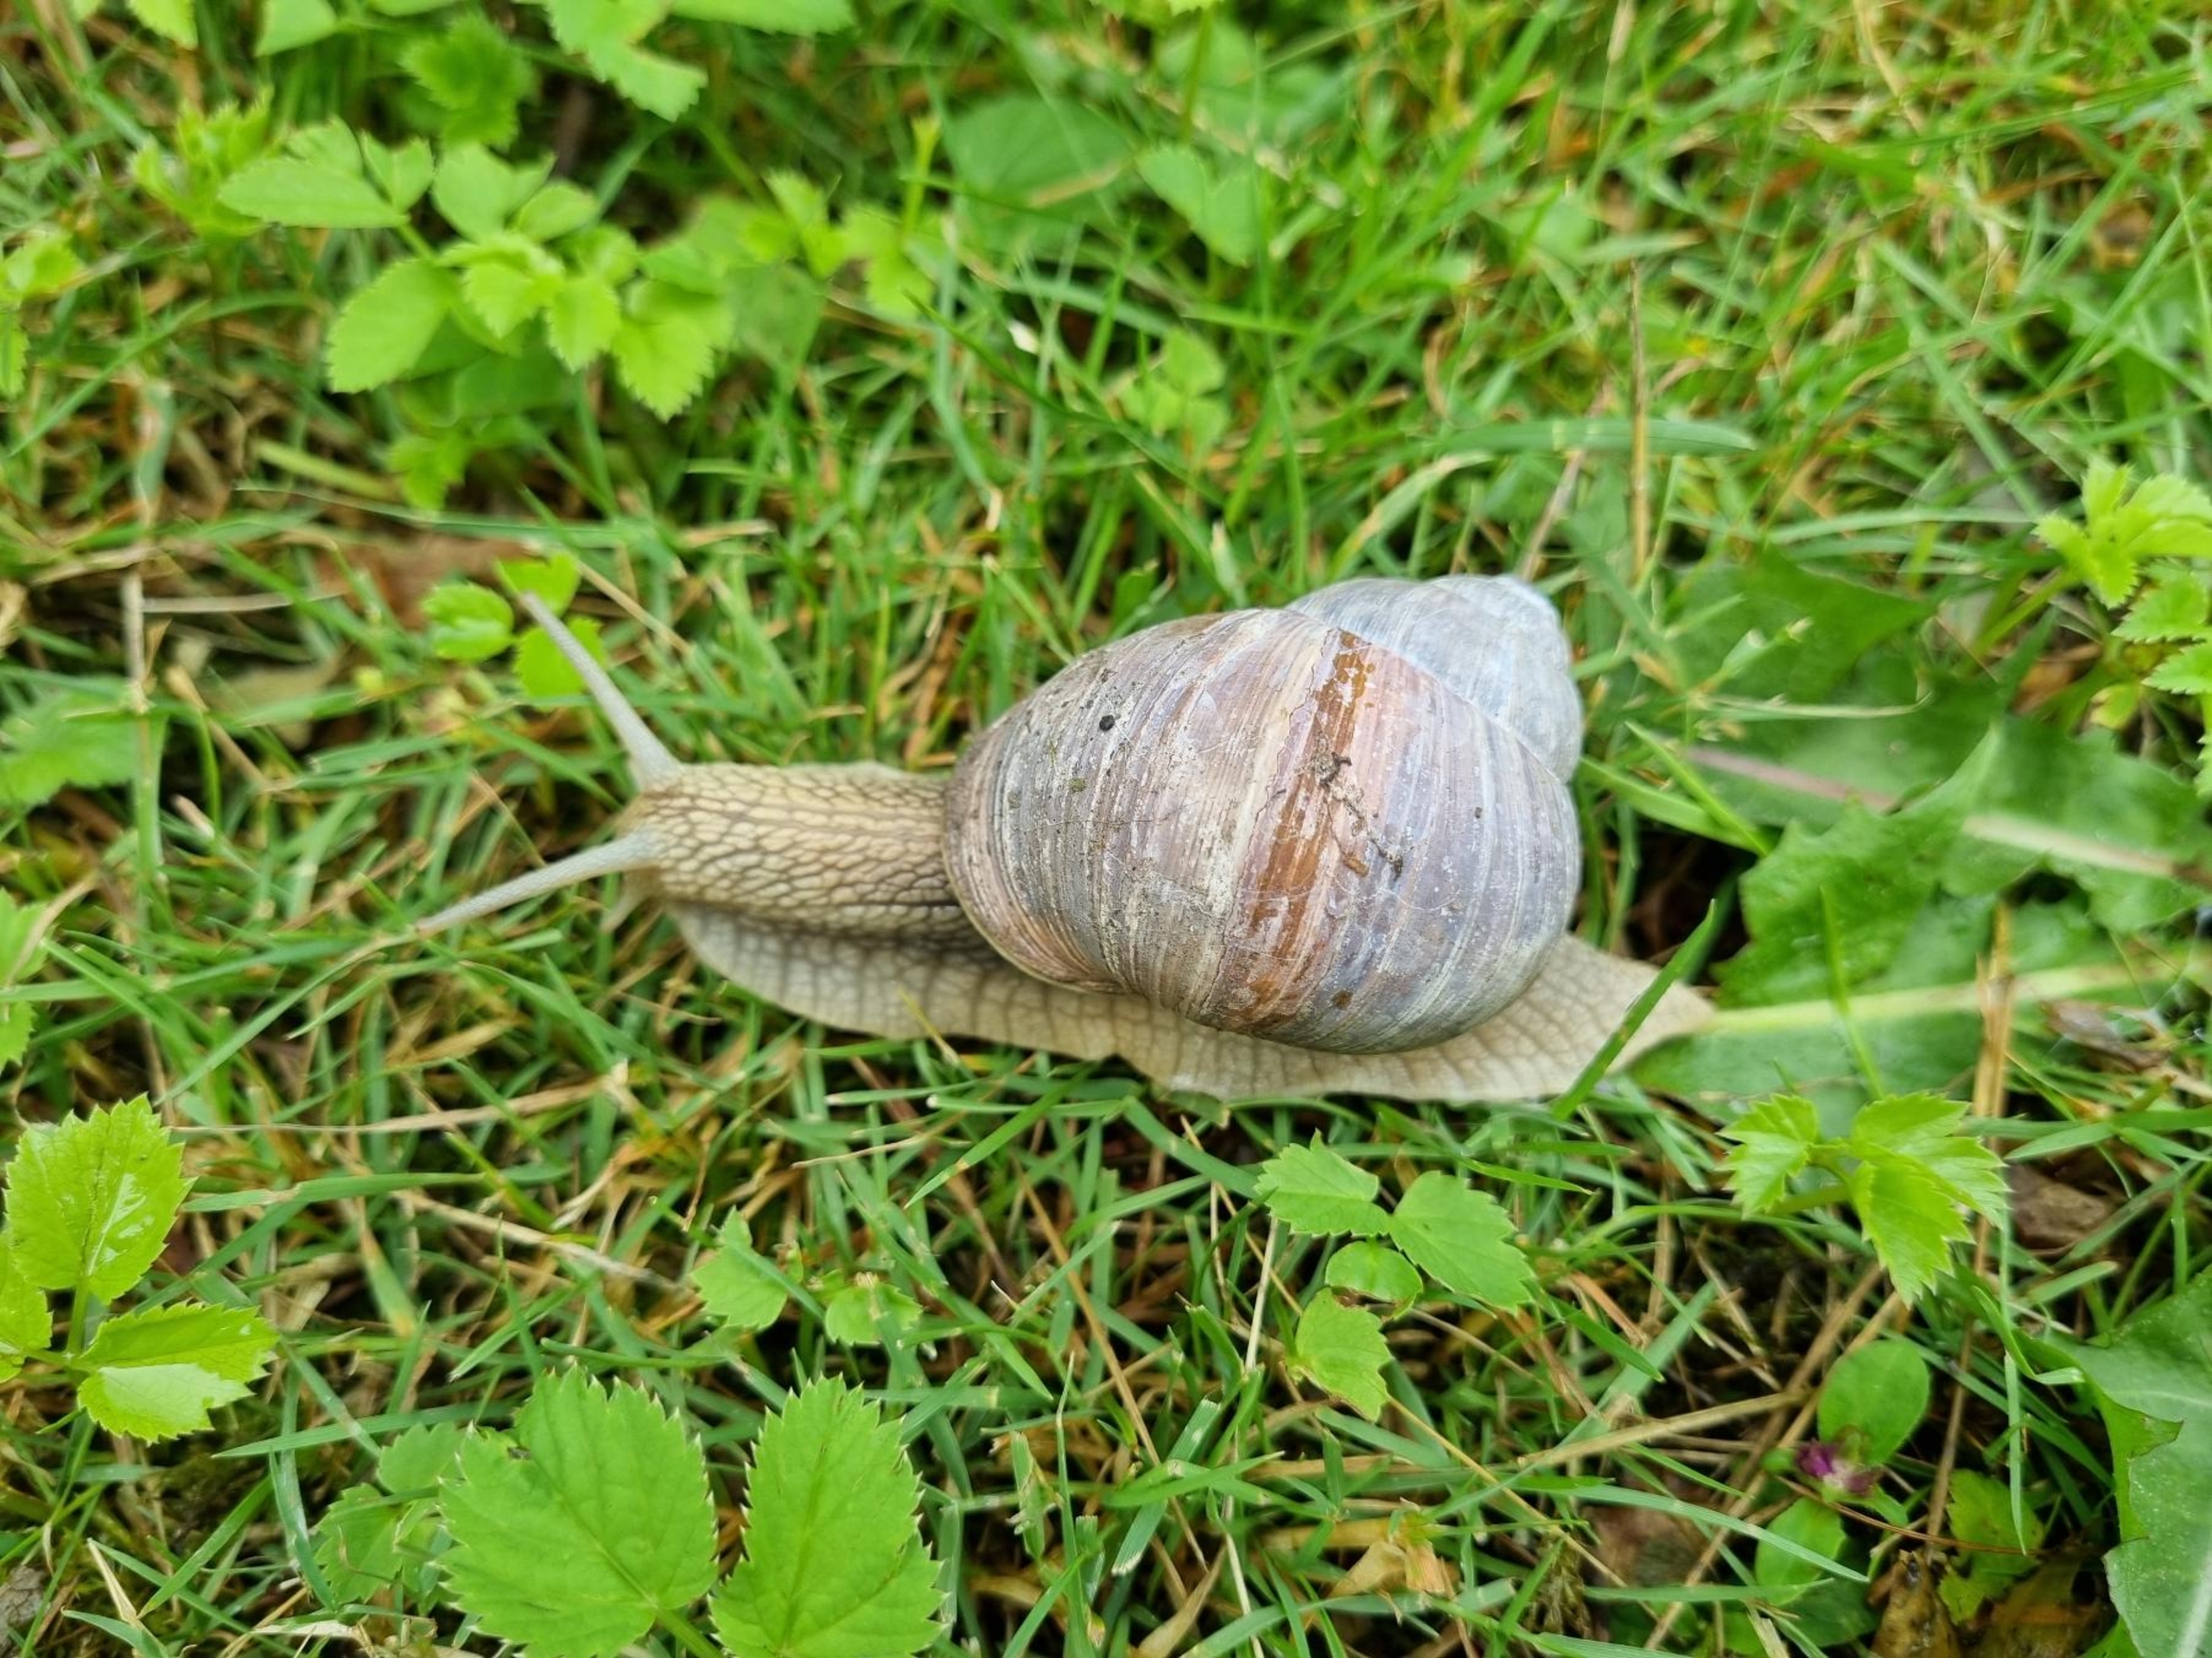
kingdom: Animalia
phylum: Mollusca
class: Gastropoda
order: Stylommatophora
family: Helicidae
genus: Helix
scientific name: Helix pomatia
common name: Vinbjergsnegl
